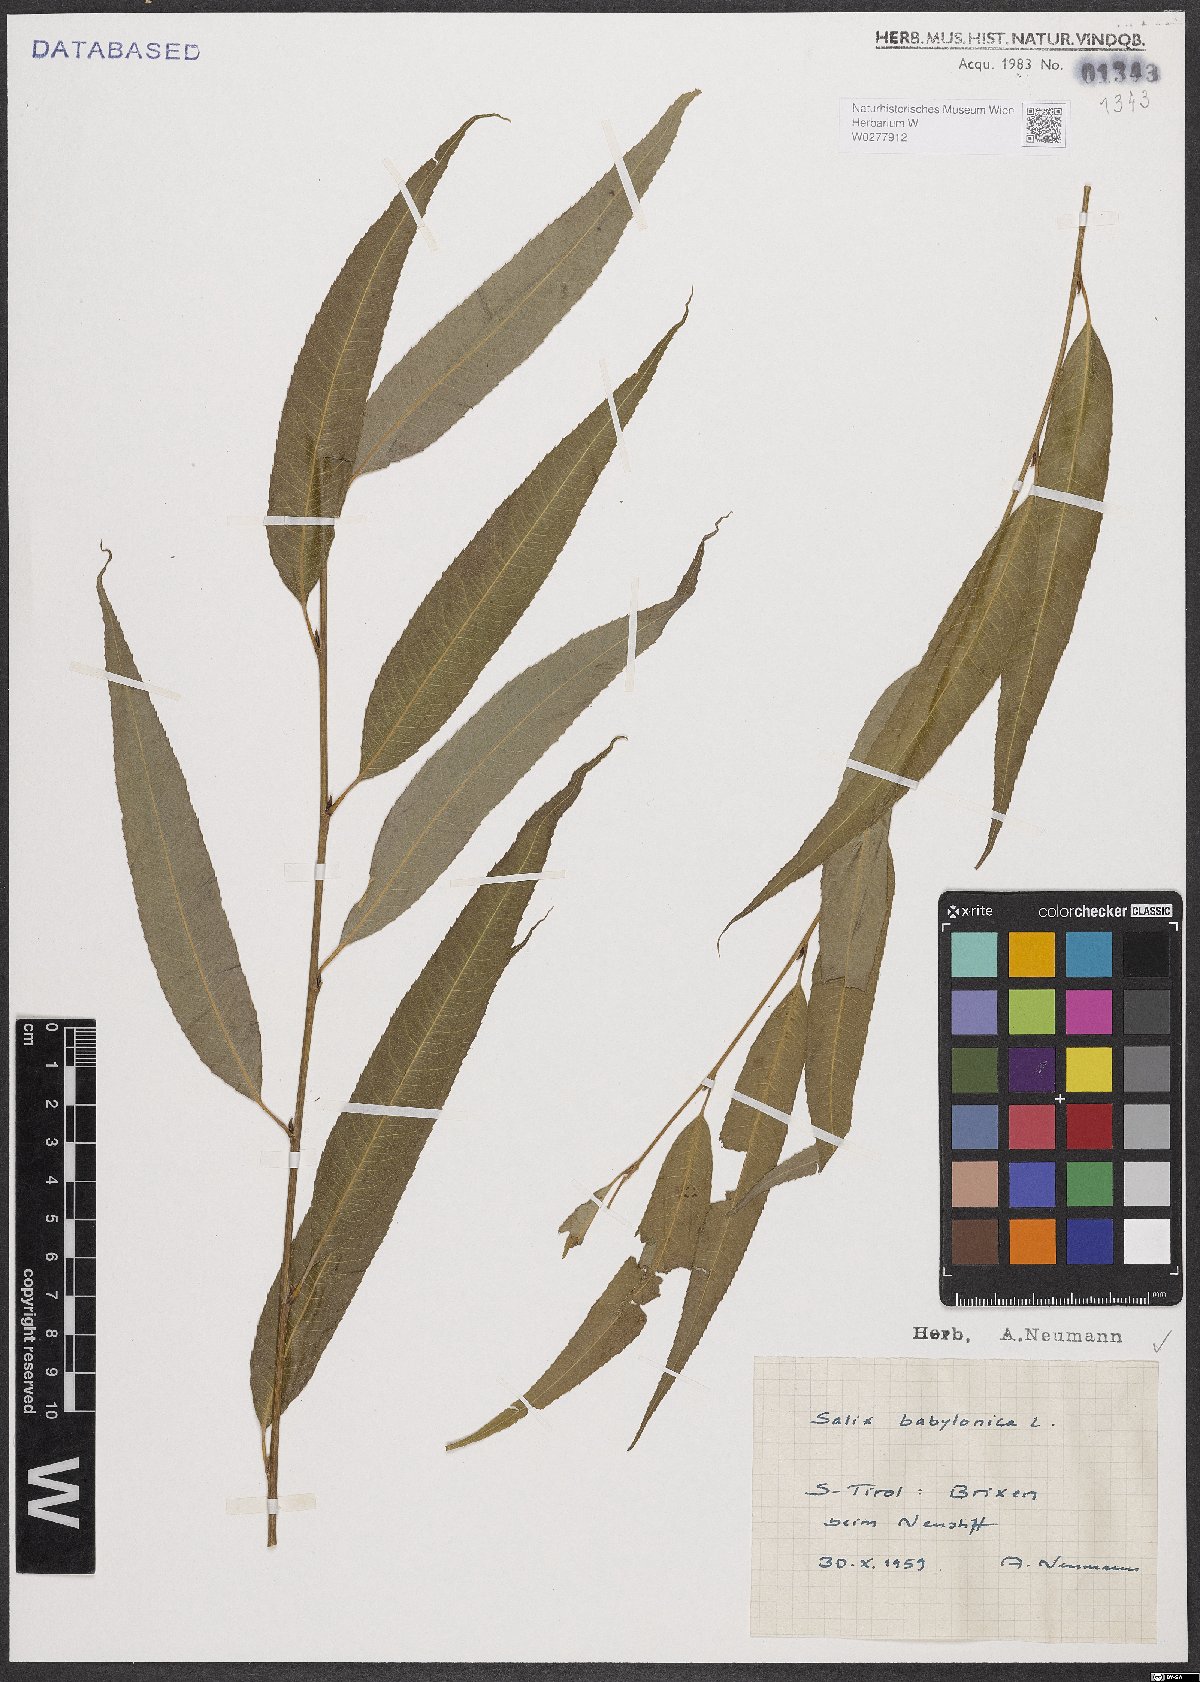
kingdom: Plantae
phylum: Tracheophyta
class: Magnoliopsida
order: Malpighiales
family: Salicaceae
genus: Salix
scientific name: Salix babylonica
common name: Weeping willow
